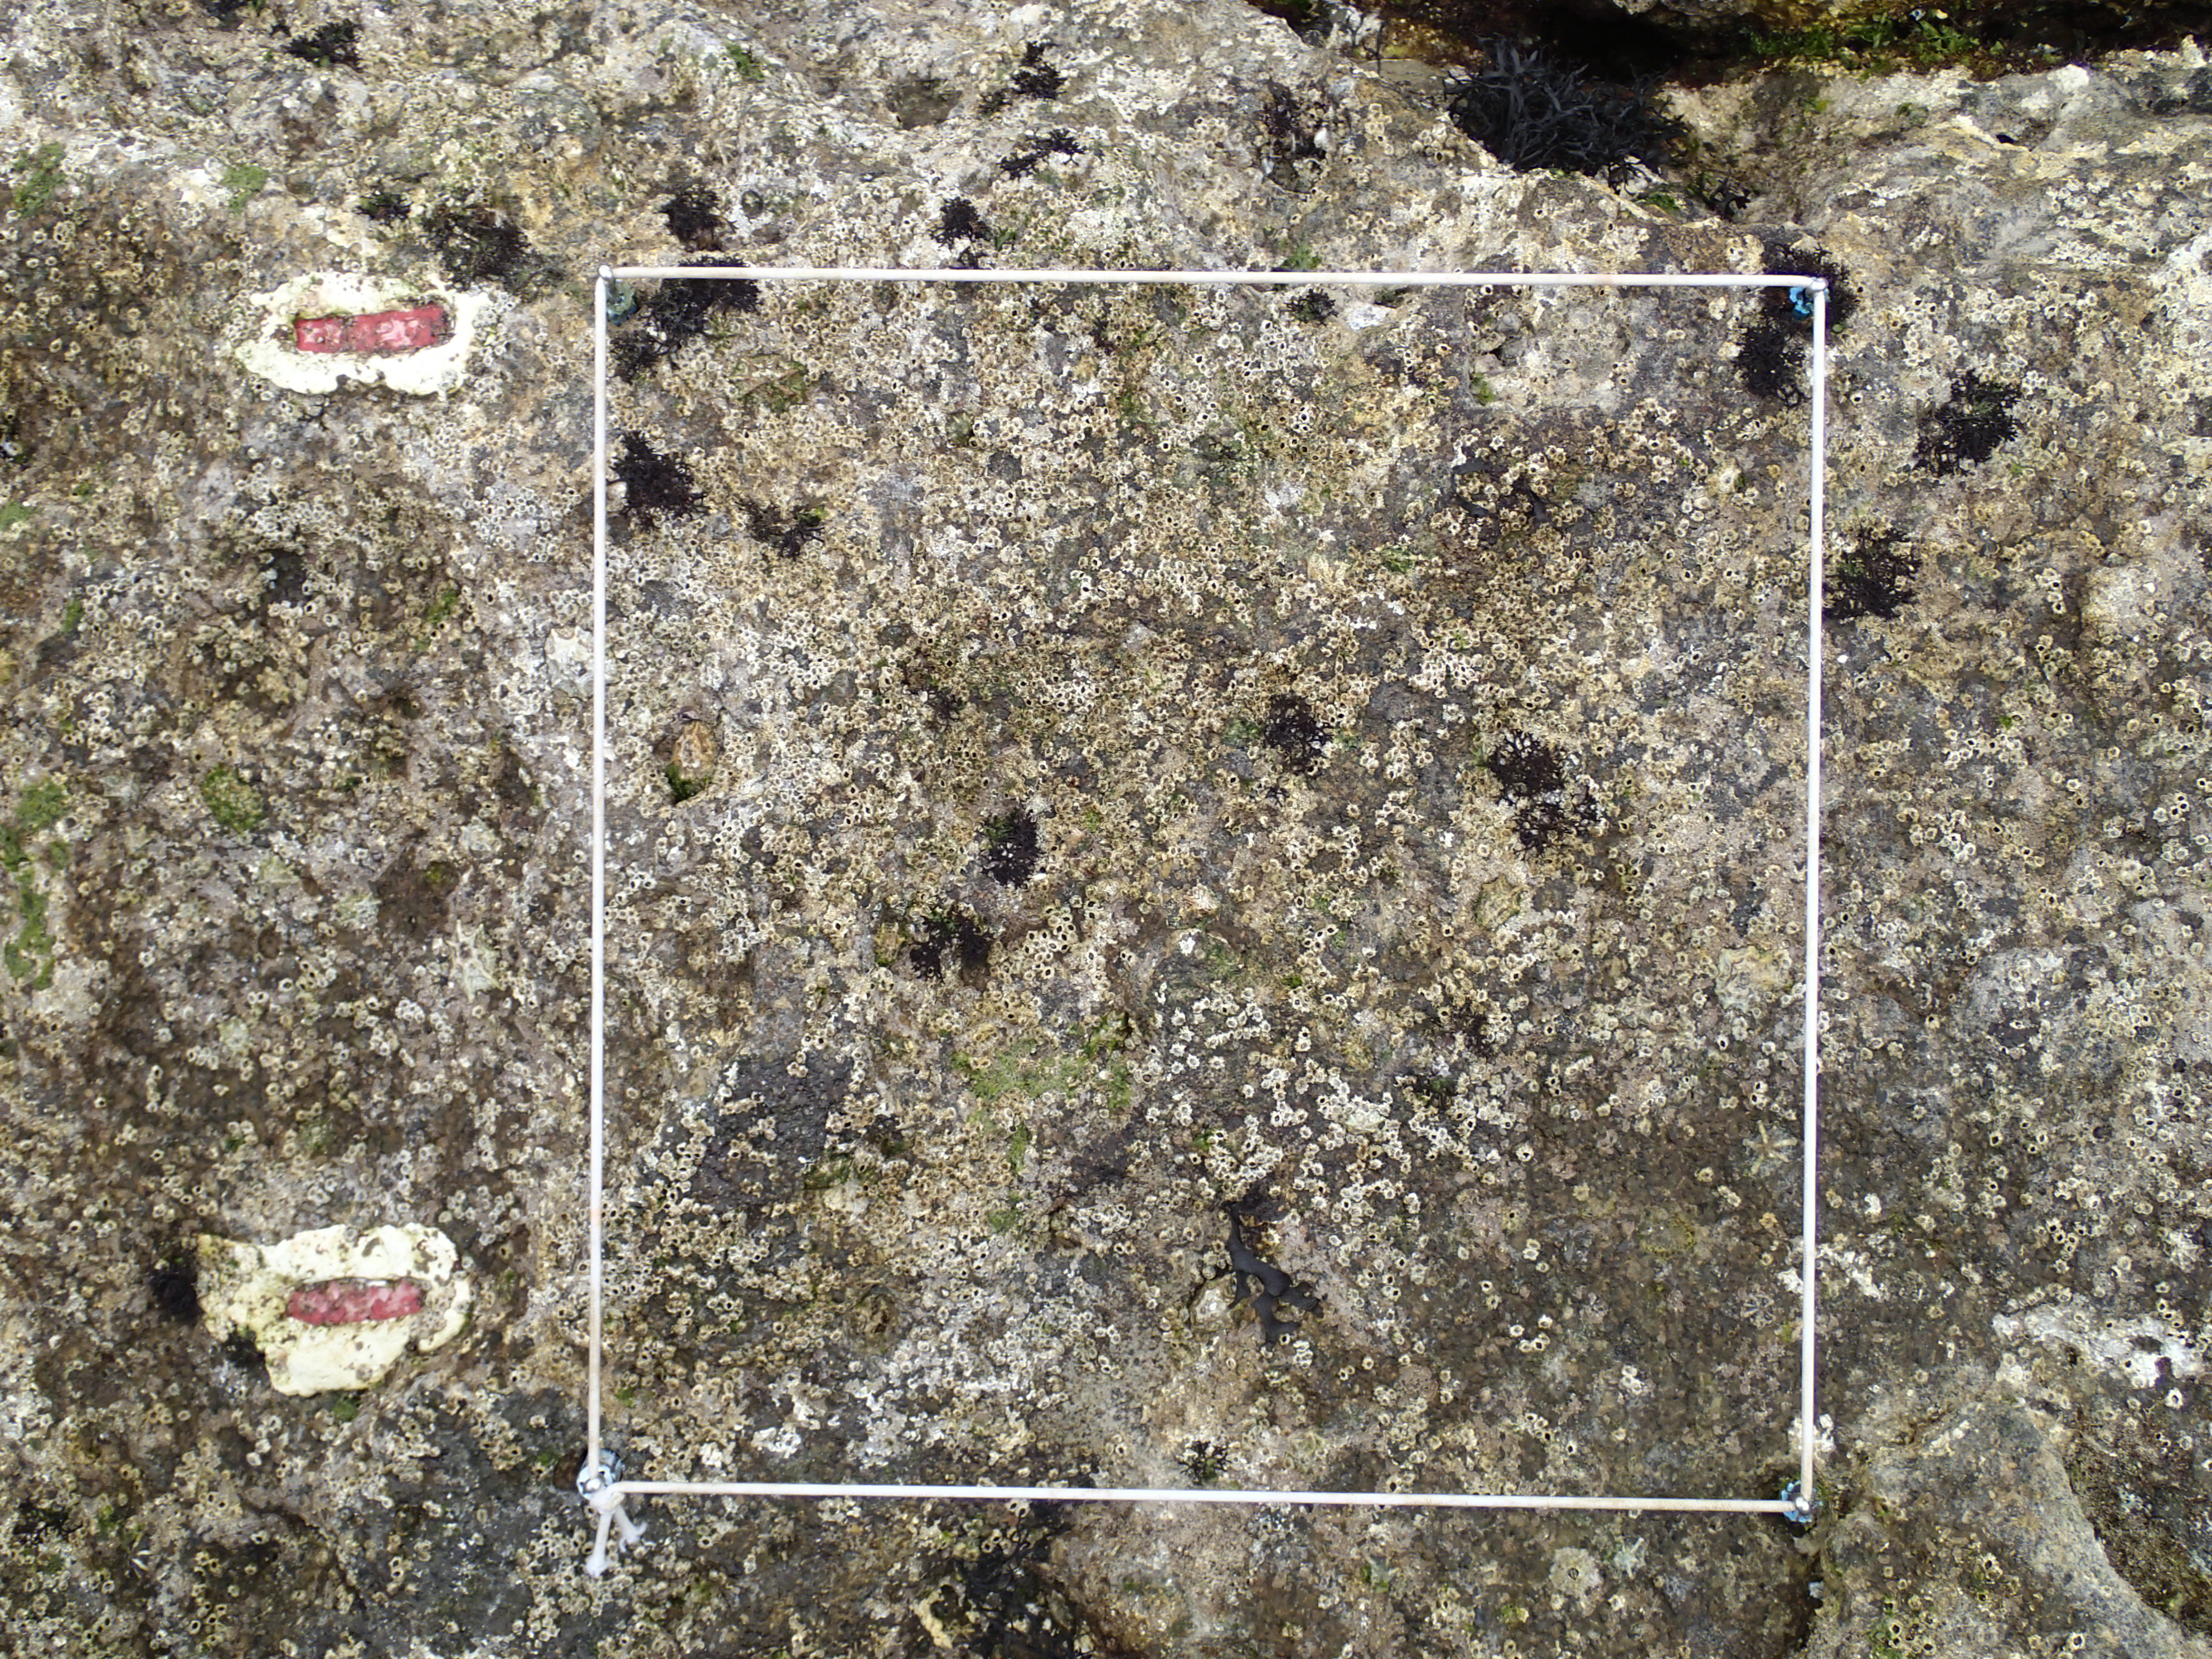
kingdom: Animalia
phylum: Arthropoda
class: Maxillopoda
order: Sessilia
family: Chthamalidae
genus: Chthamalus
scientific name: Chthamalus challengeri
